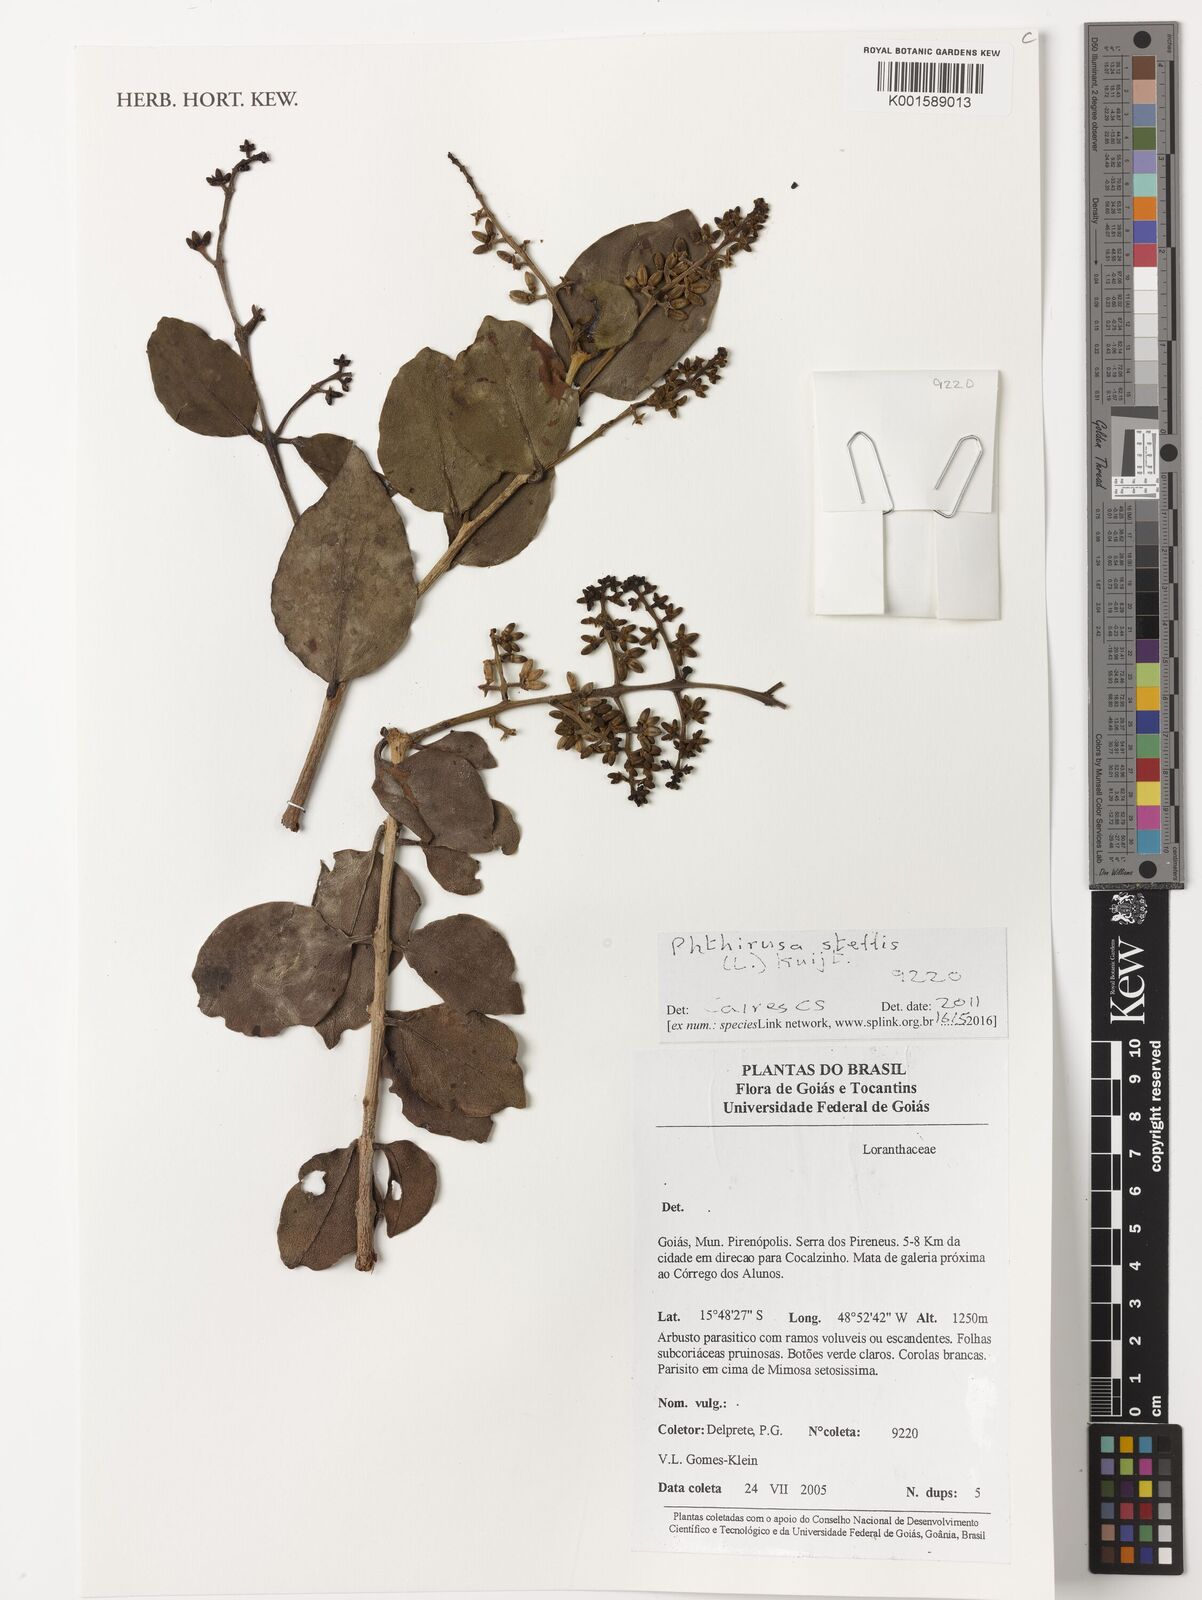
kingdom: Plantae
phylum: Tracheophyta
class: Magnoliopsida
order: Santalales
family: Loranthaceae
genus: Passovia
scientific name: Passovia pedunculata
